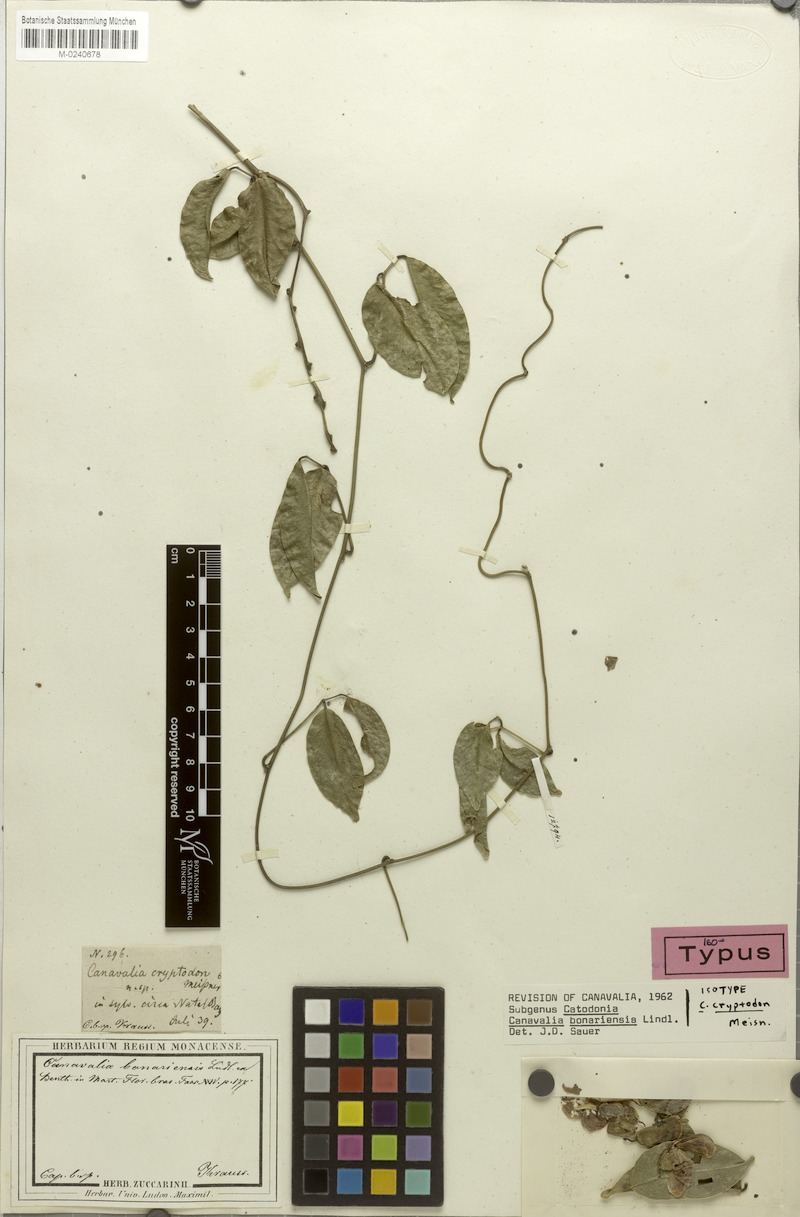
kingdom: Plantae
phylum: Tracheophyta
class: Magnoliopsida
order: Fabales
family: Fabaceae
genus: Canavalia
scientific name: Canavalia bonariensis
